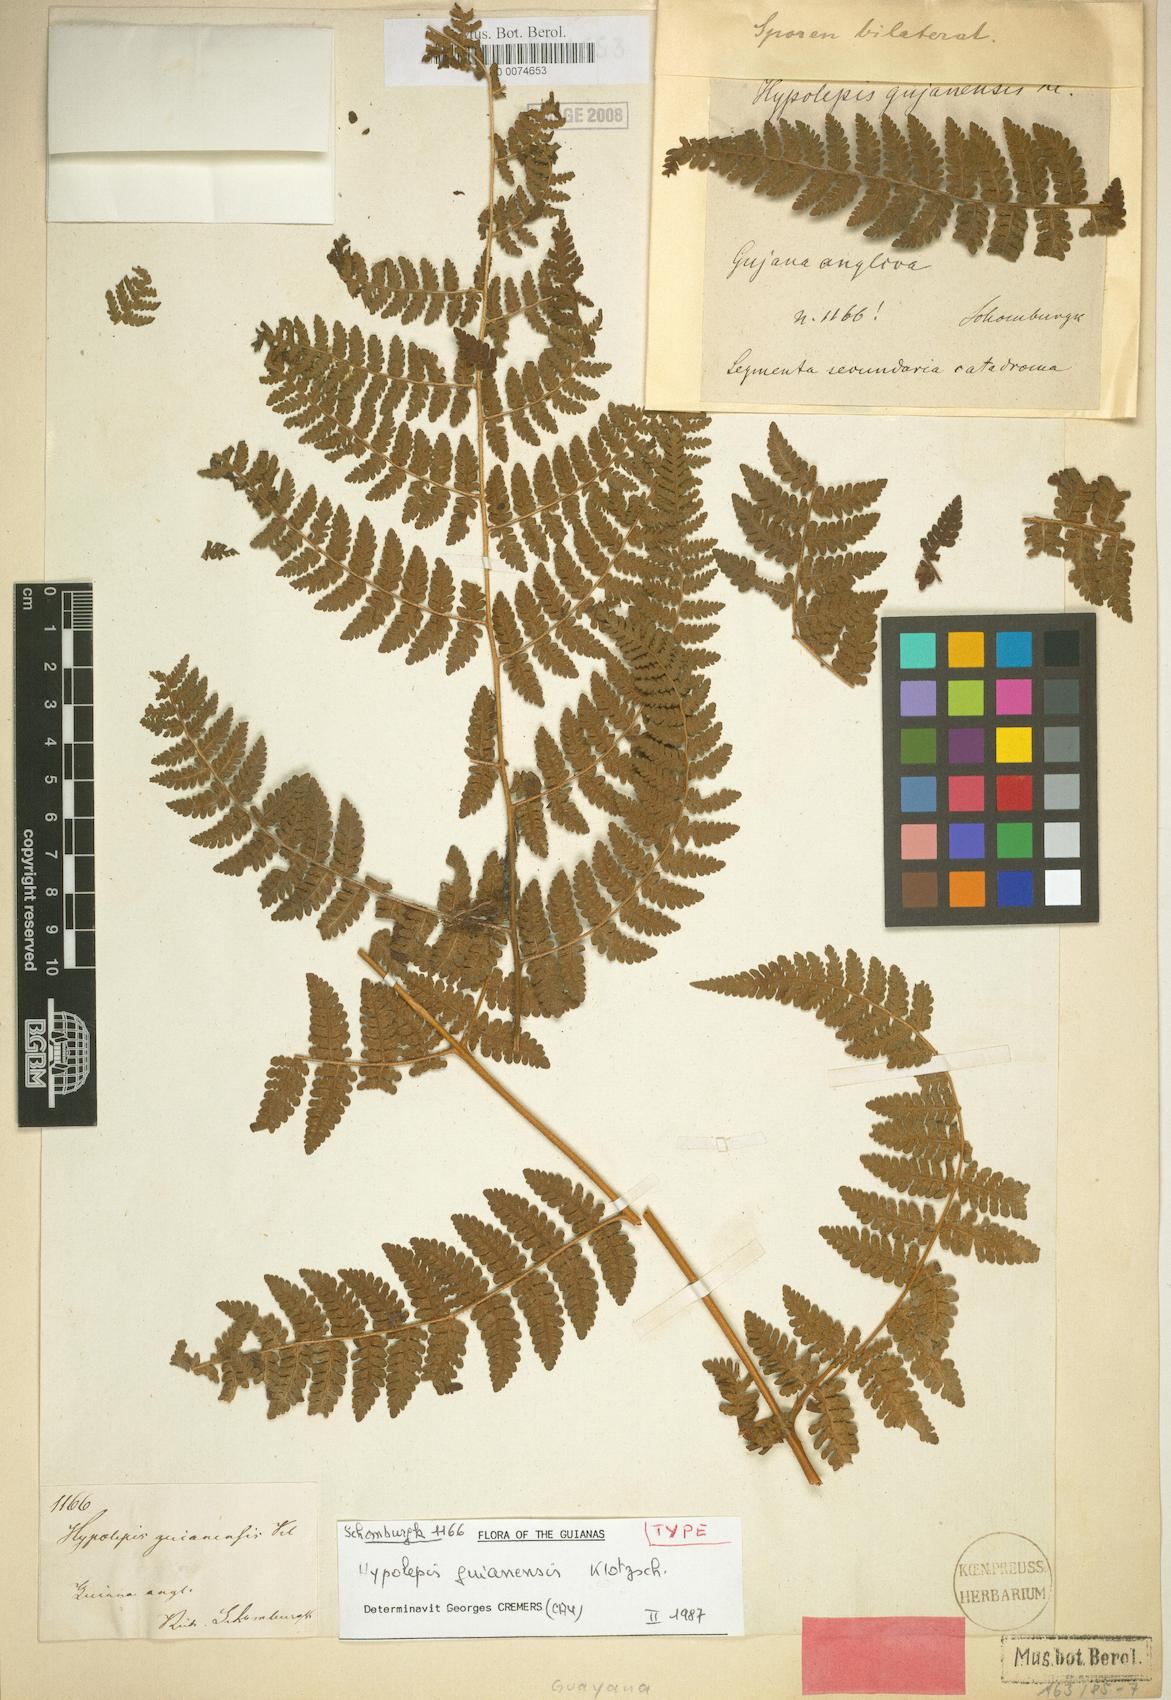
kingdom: Plantae
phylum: Tracheophyta
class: Polypodiopsida
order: Polypodiales
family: Dennstaedtiaceae
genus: Hypolepis
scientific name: Hypolepis guianensis
